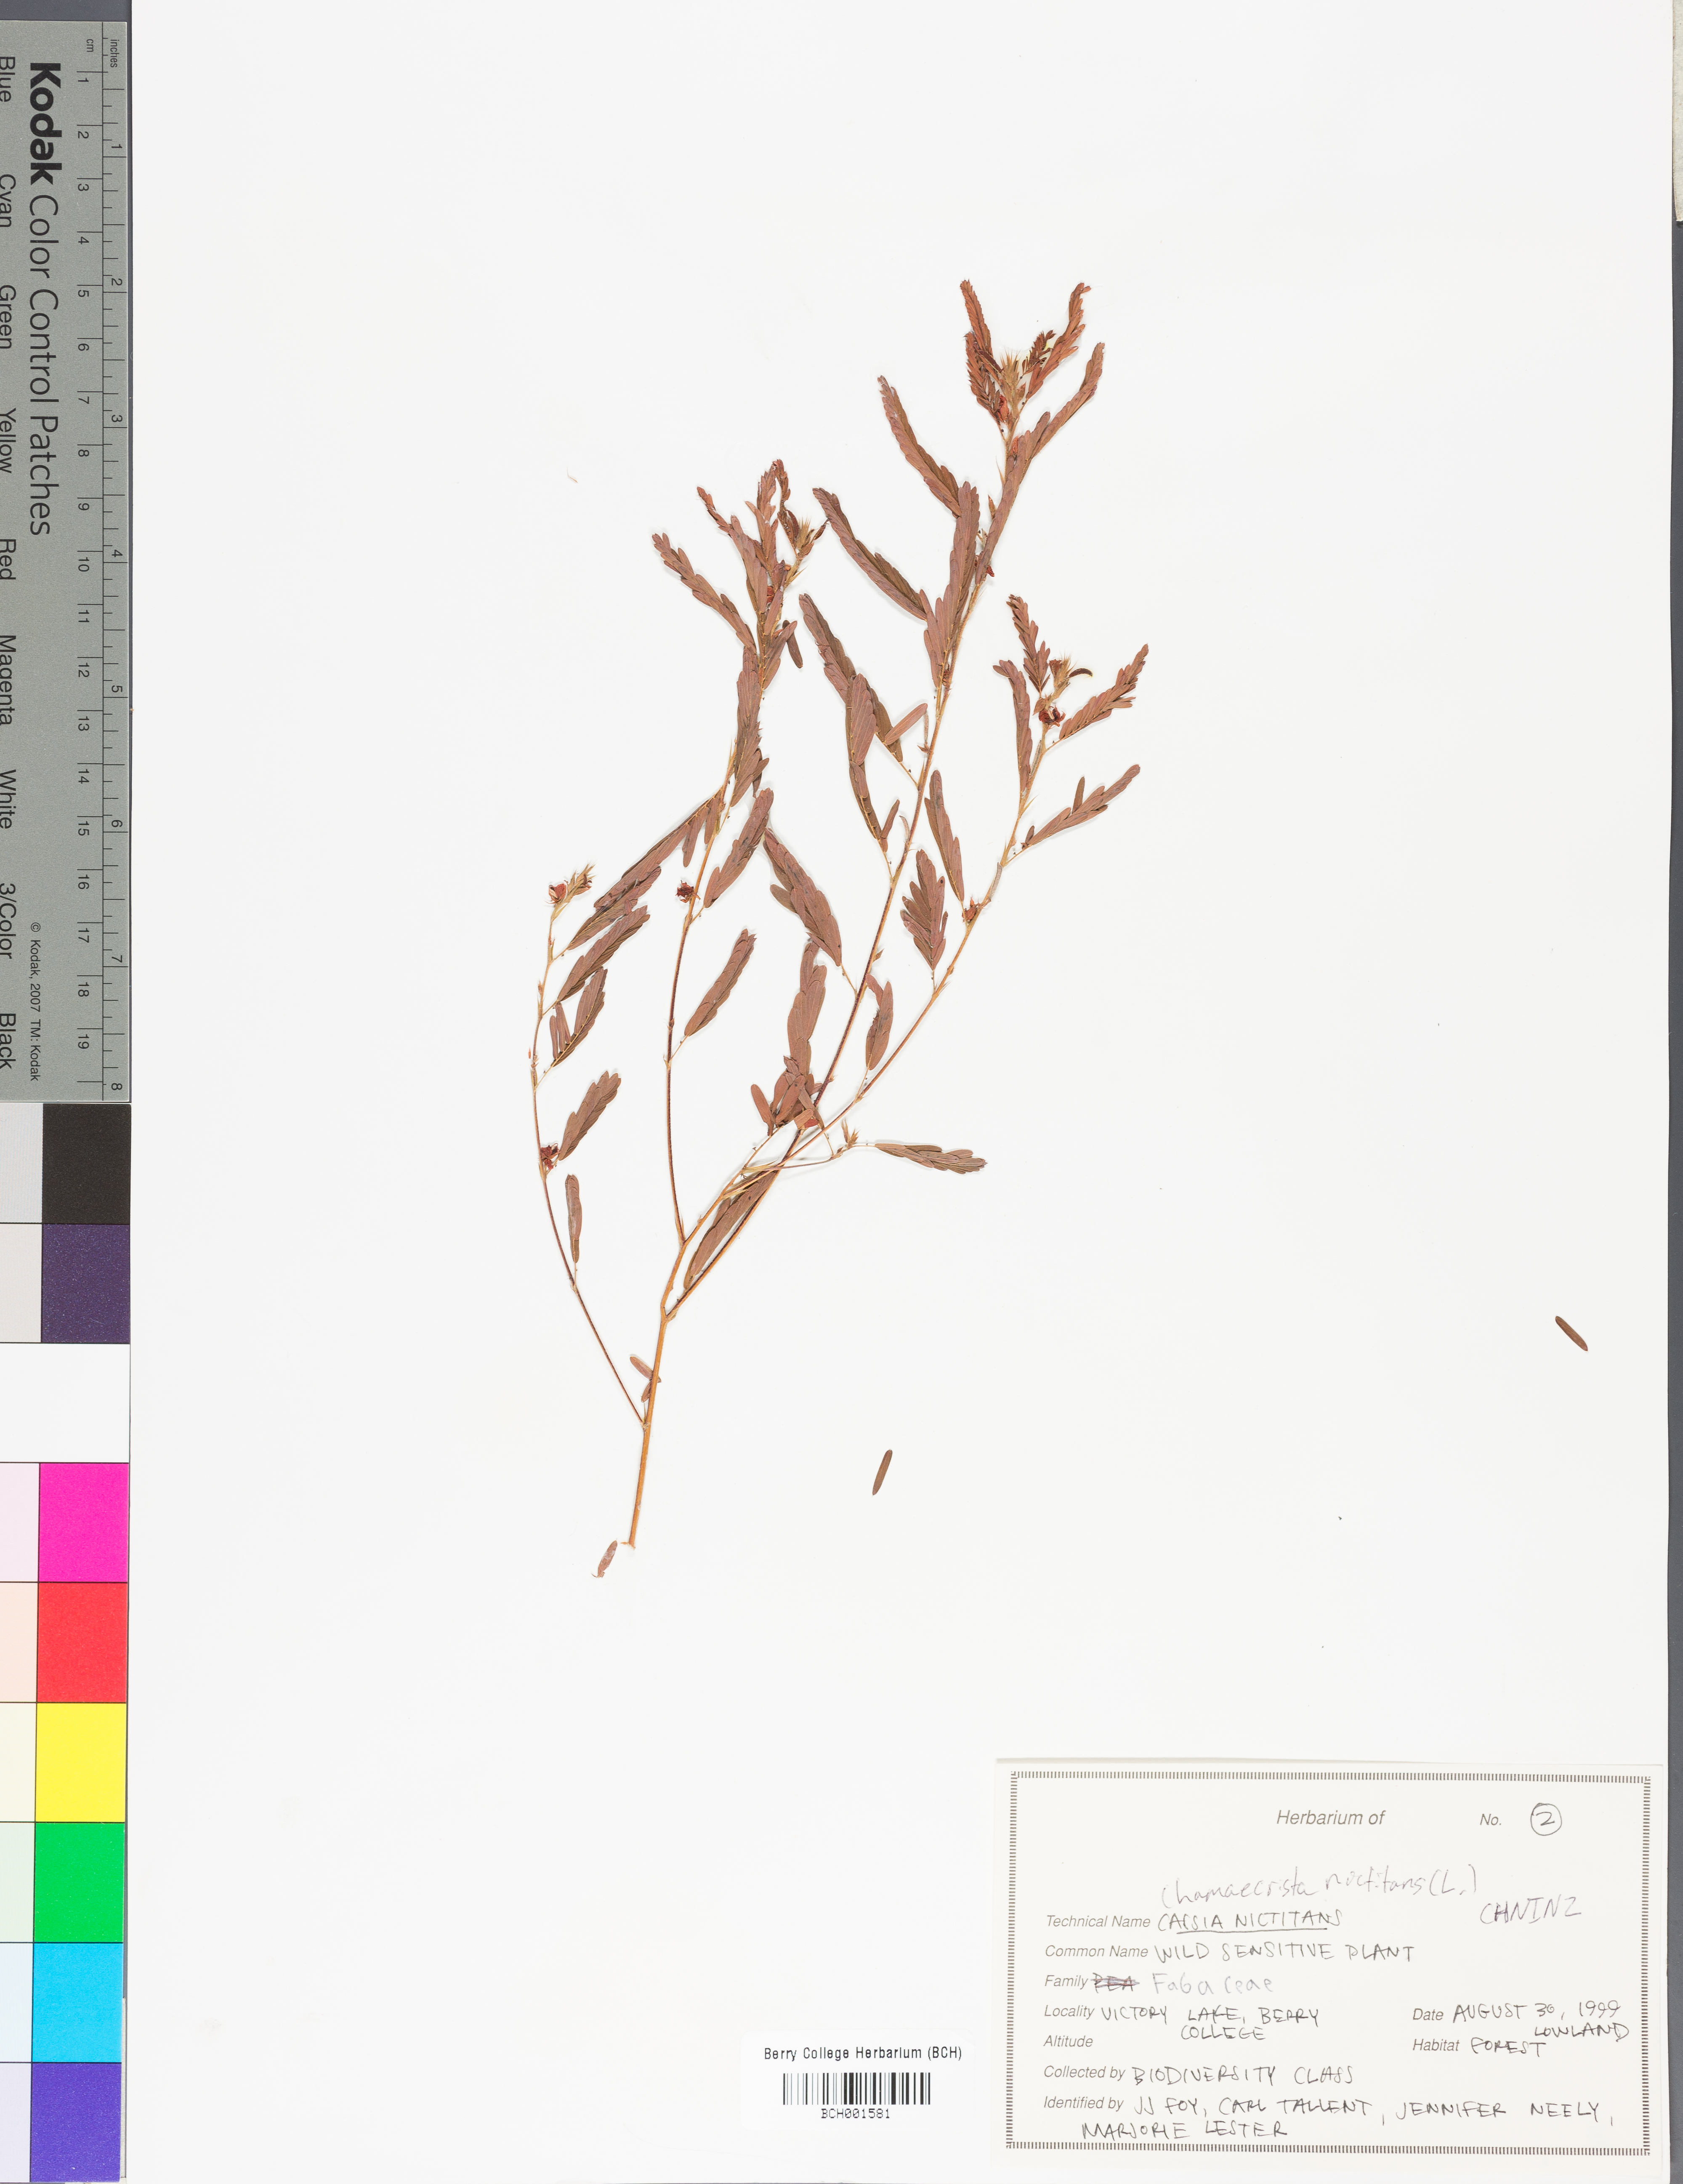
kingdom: Plantae
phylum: Tracheophyta
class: Magnoliopsida
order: Fabales
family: Fabaceae
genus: Chamaecrista
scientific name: Chamaecrista nictitans
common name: Sensitive cassia
